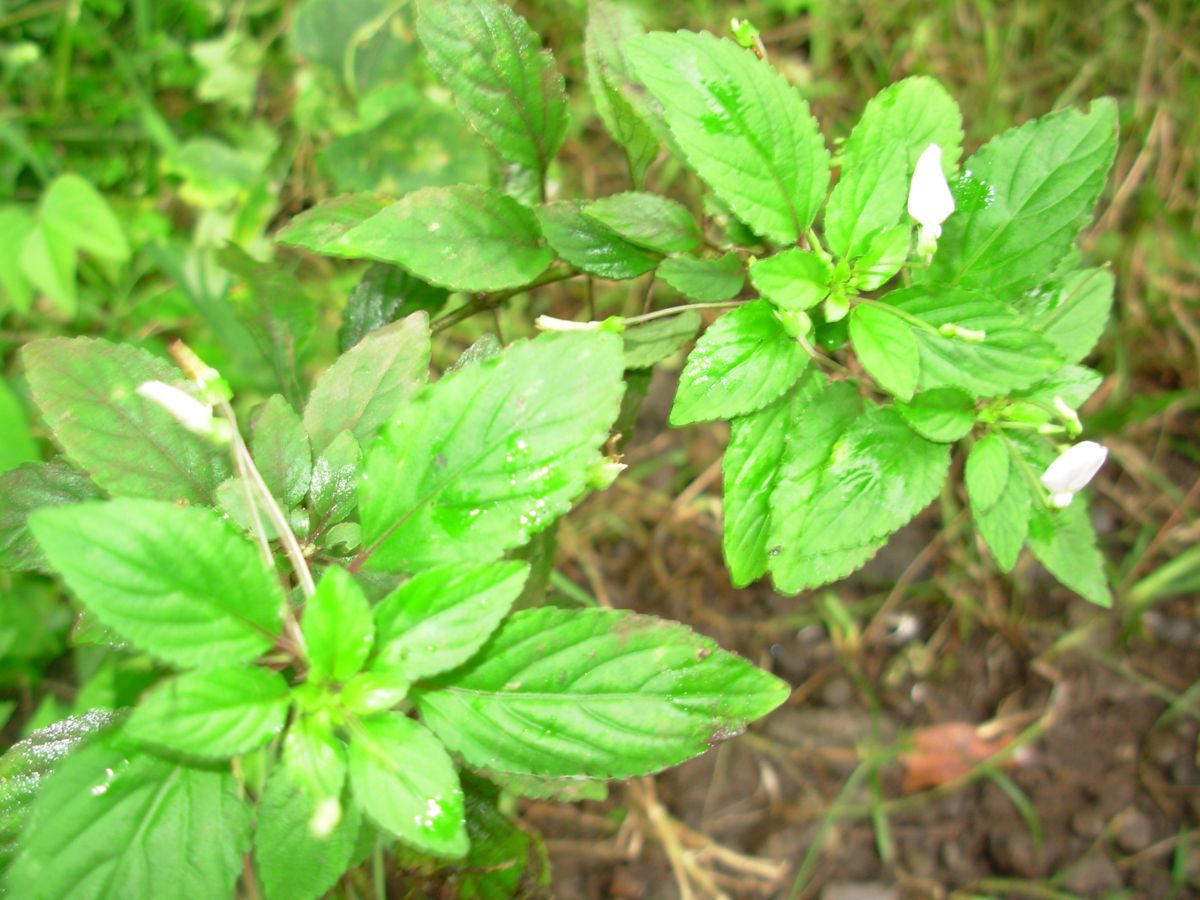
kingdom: Plantae
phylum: Tracheophyta
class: Magnoliopsida
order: Malpighiales
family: Violaceae
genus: Hybanthus
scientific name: Hybanthus thiemei
